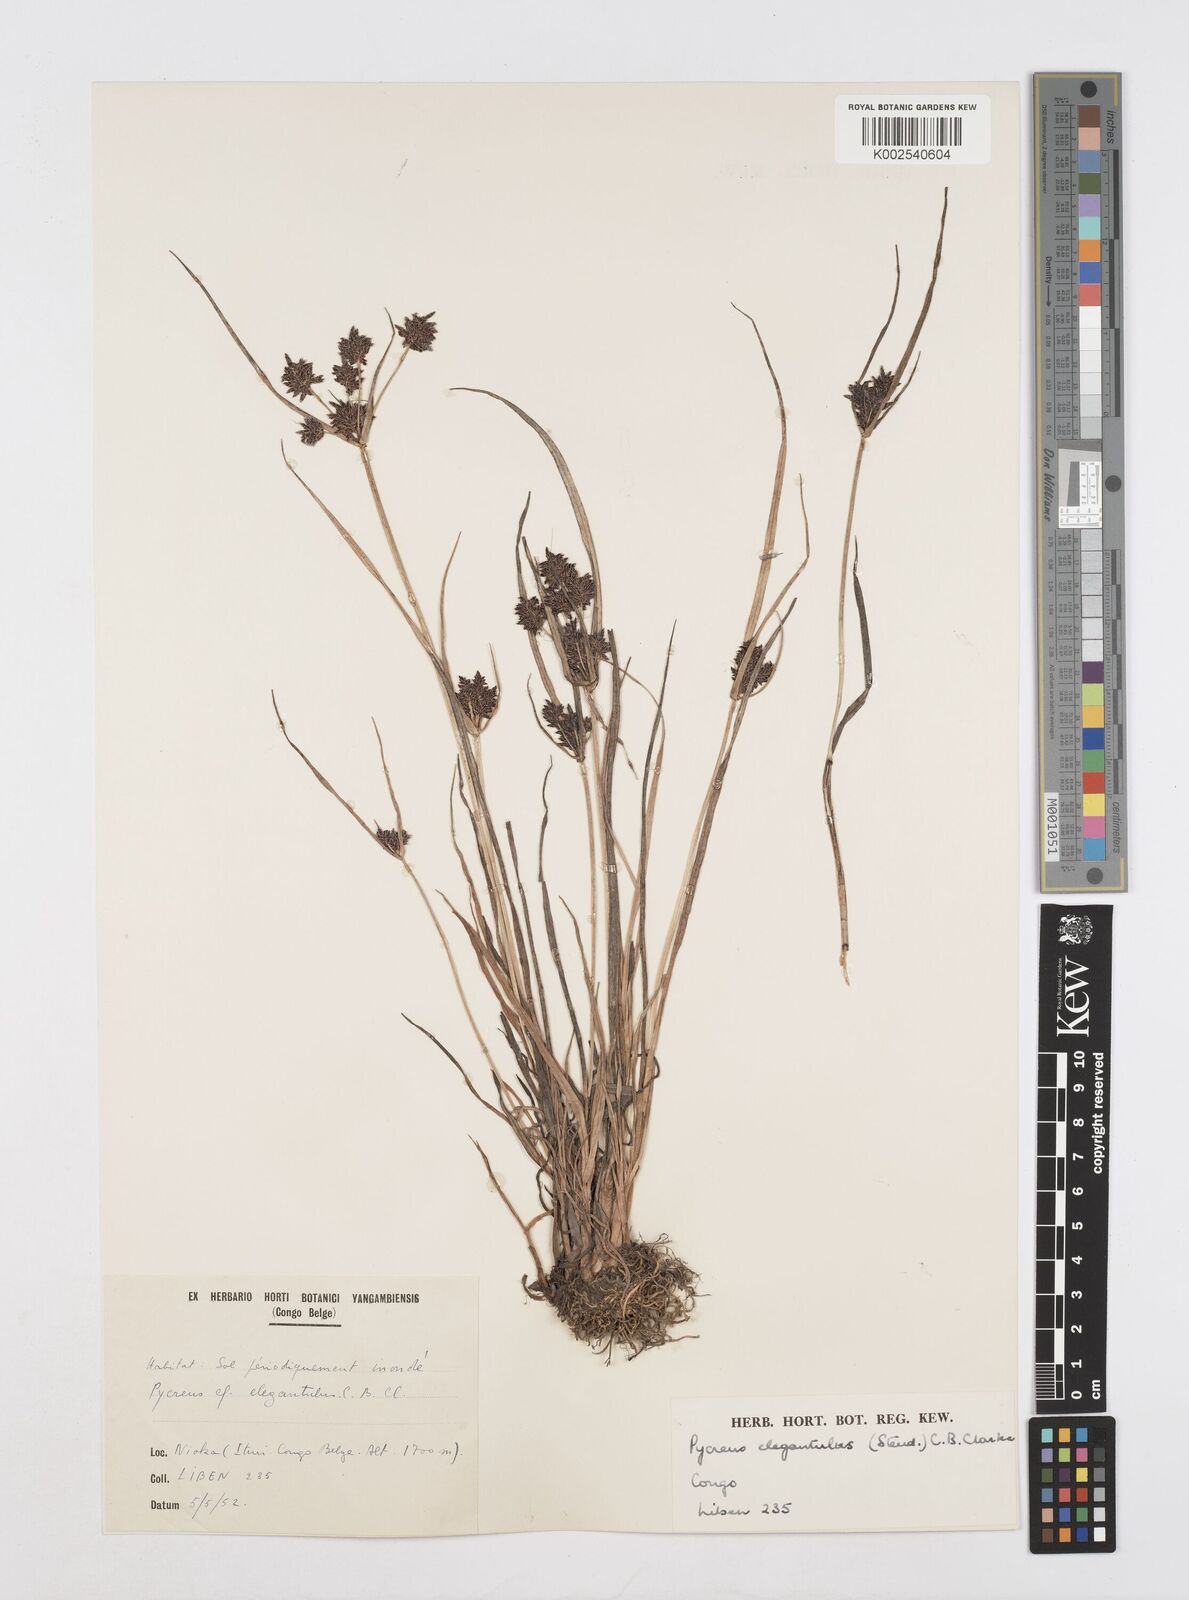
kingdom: Plantae
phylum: Tracheophyta
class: Liliopsida
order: Poales
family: Cyperaceae
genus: Cyperus
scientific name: Cyperus elegantulus
